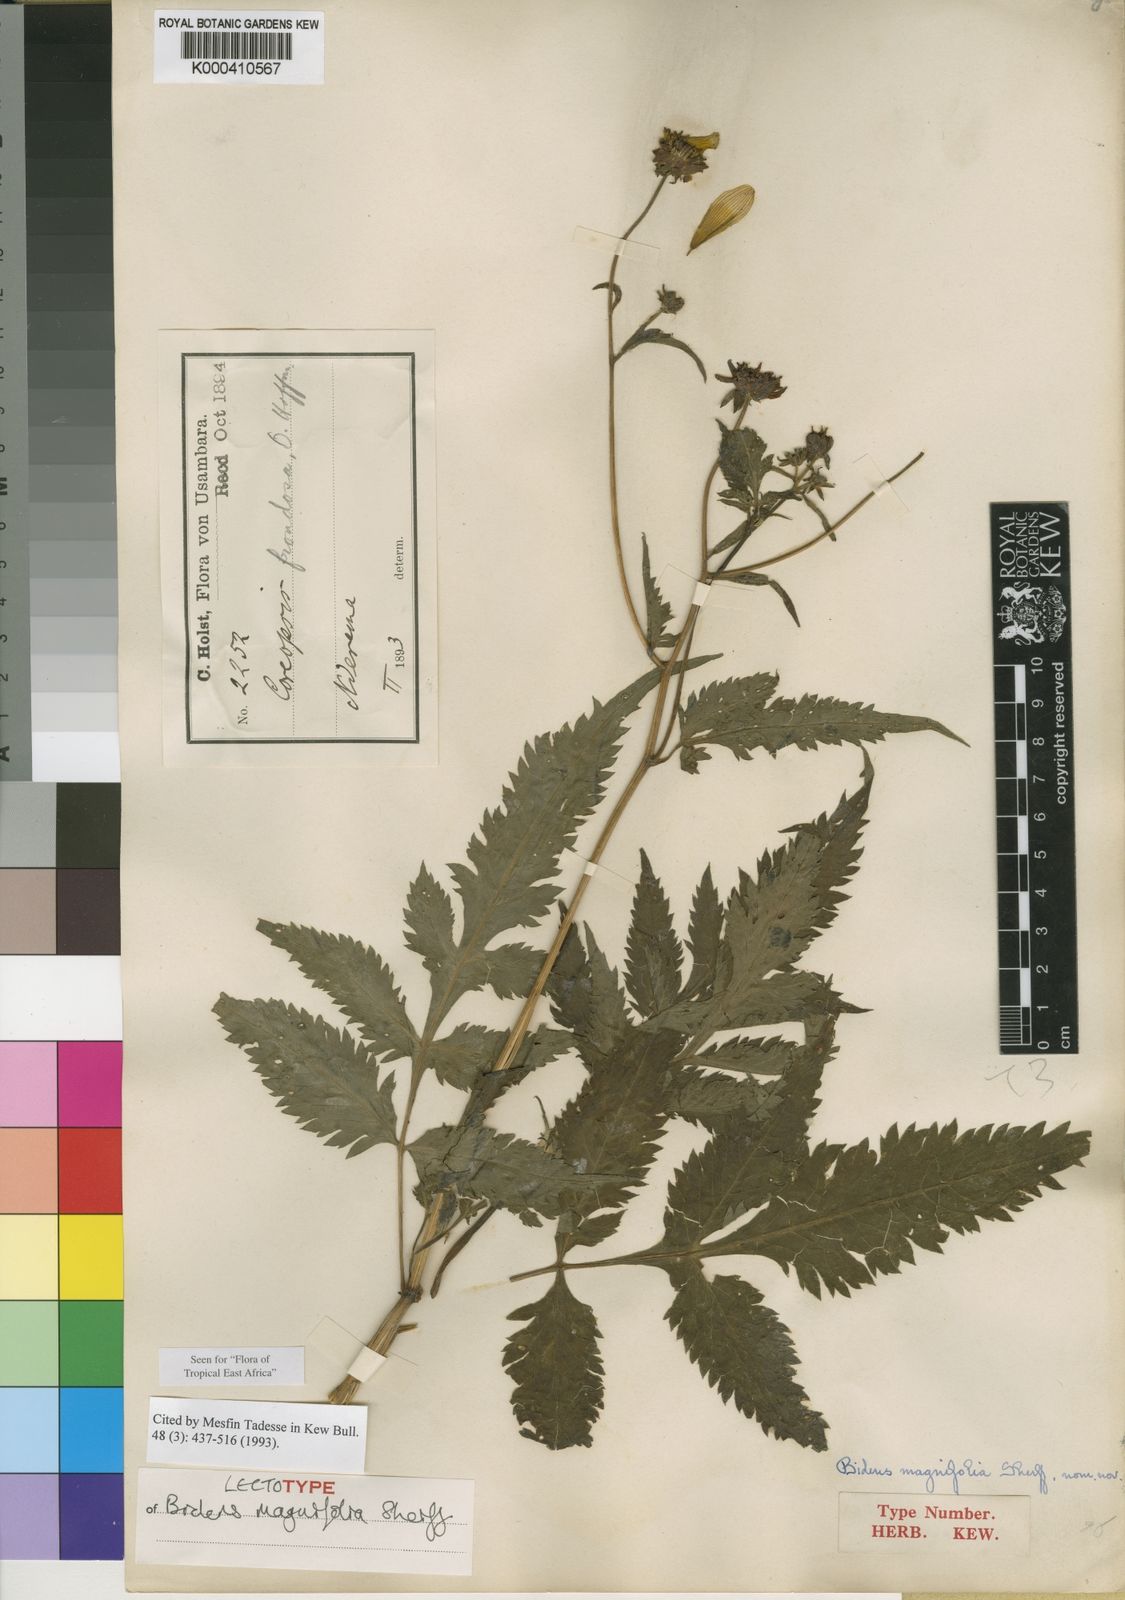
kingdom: Plantae
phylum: Tracheophyta
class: Magnoliopsida
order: Asterales
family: Asteraceae
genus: Bidens
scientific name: Bidens magnifolia
